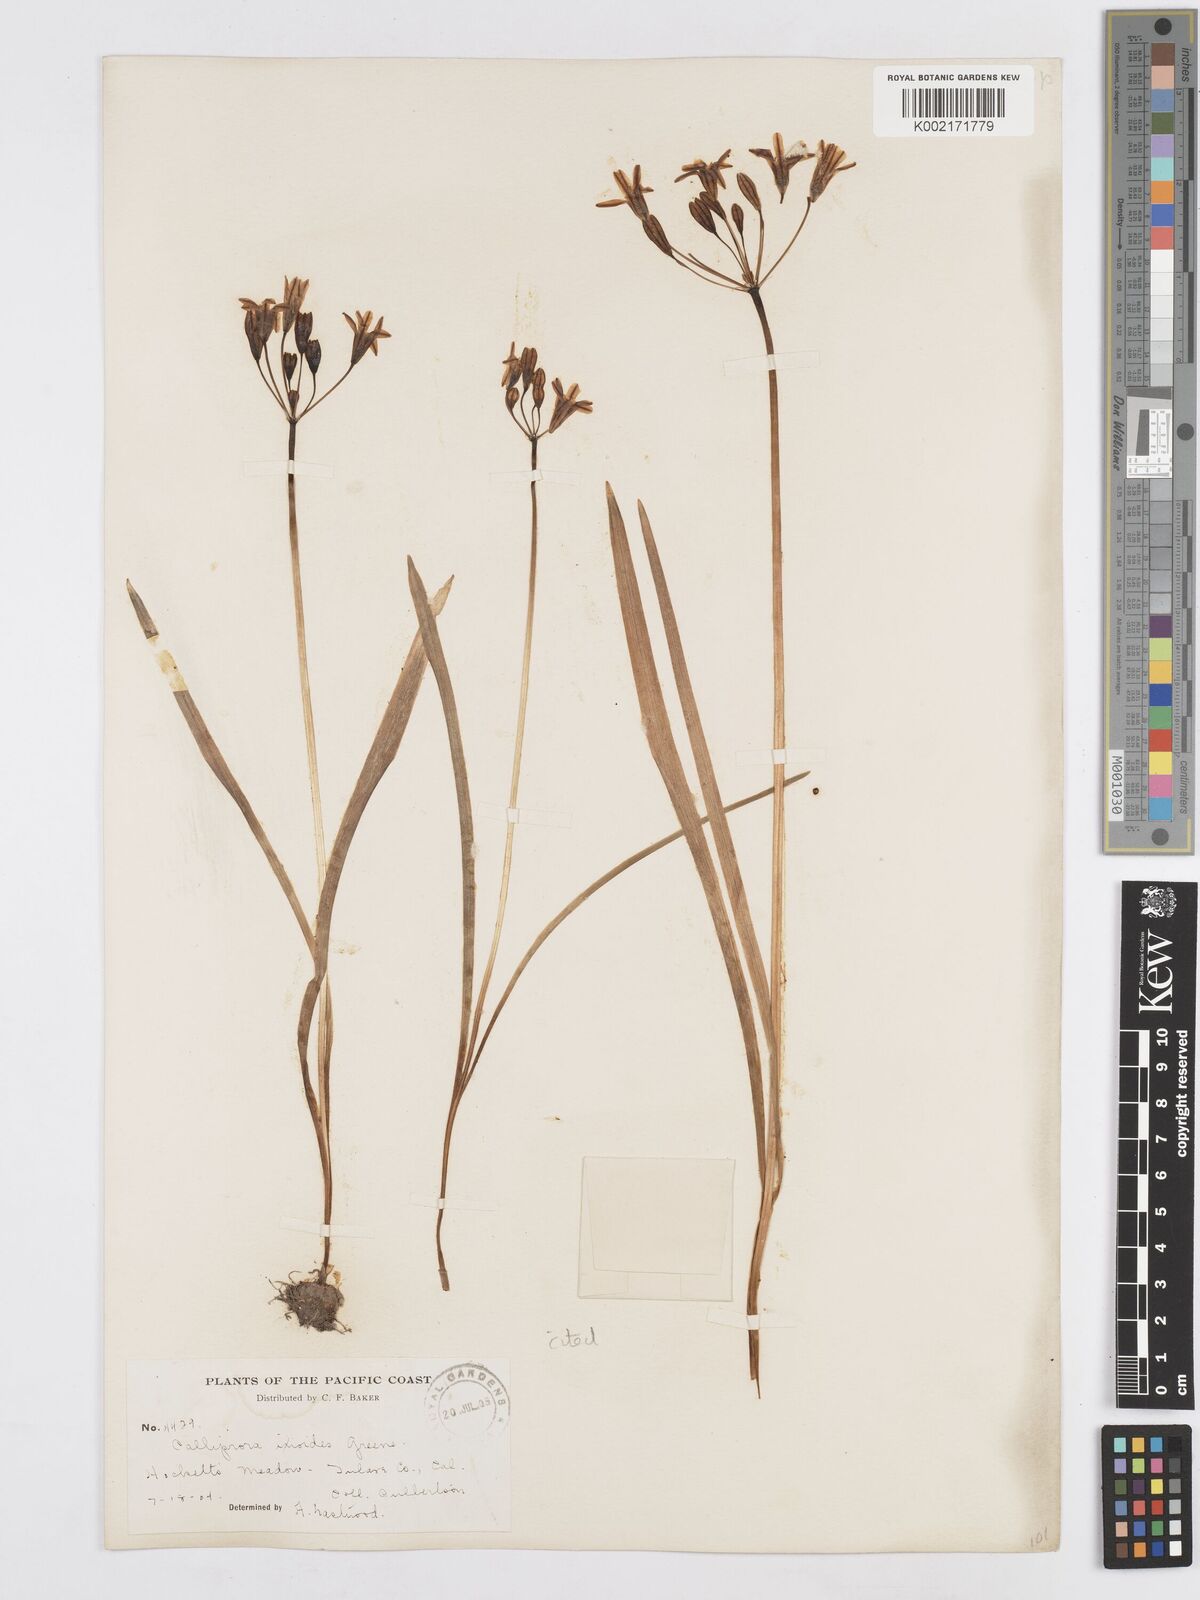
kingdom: Plantae
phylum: Tracheophyta
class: Liliopsida
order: Asparagales
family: Asparagaceae
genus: Triteleia
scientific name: Triteleia ixioides
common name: Yellow-brodiaea
